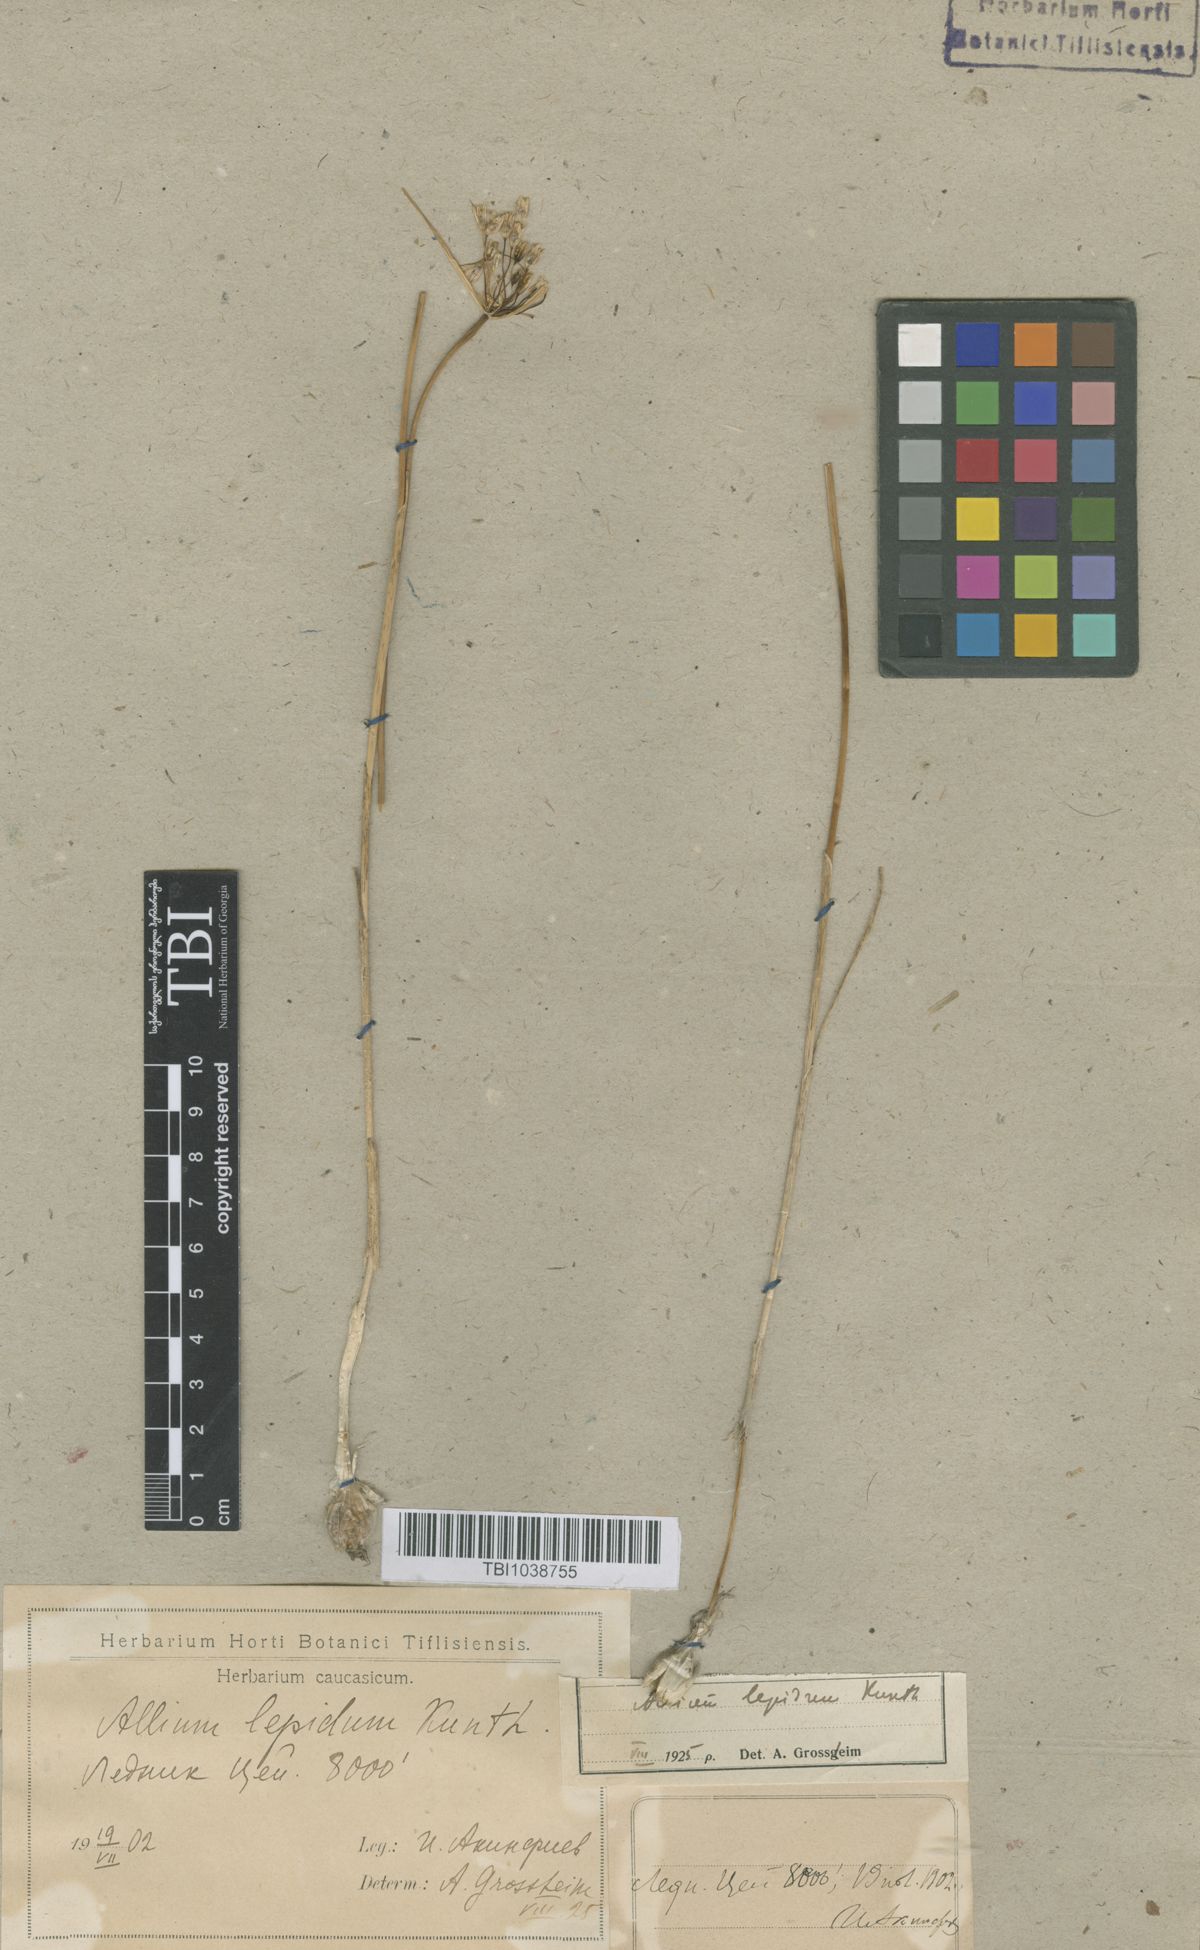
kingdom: Plantae
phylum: Tracheophyta
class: Liliopsida
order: Asparagales
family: Amaryllidaceae
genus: Allium
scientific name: Allium kunthianum
